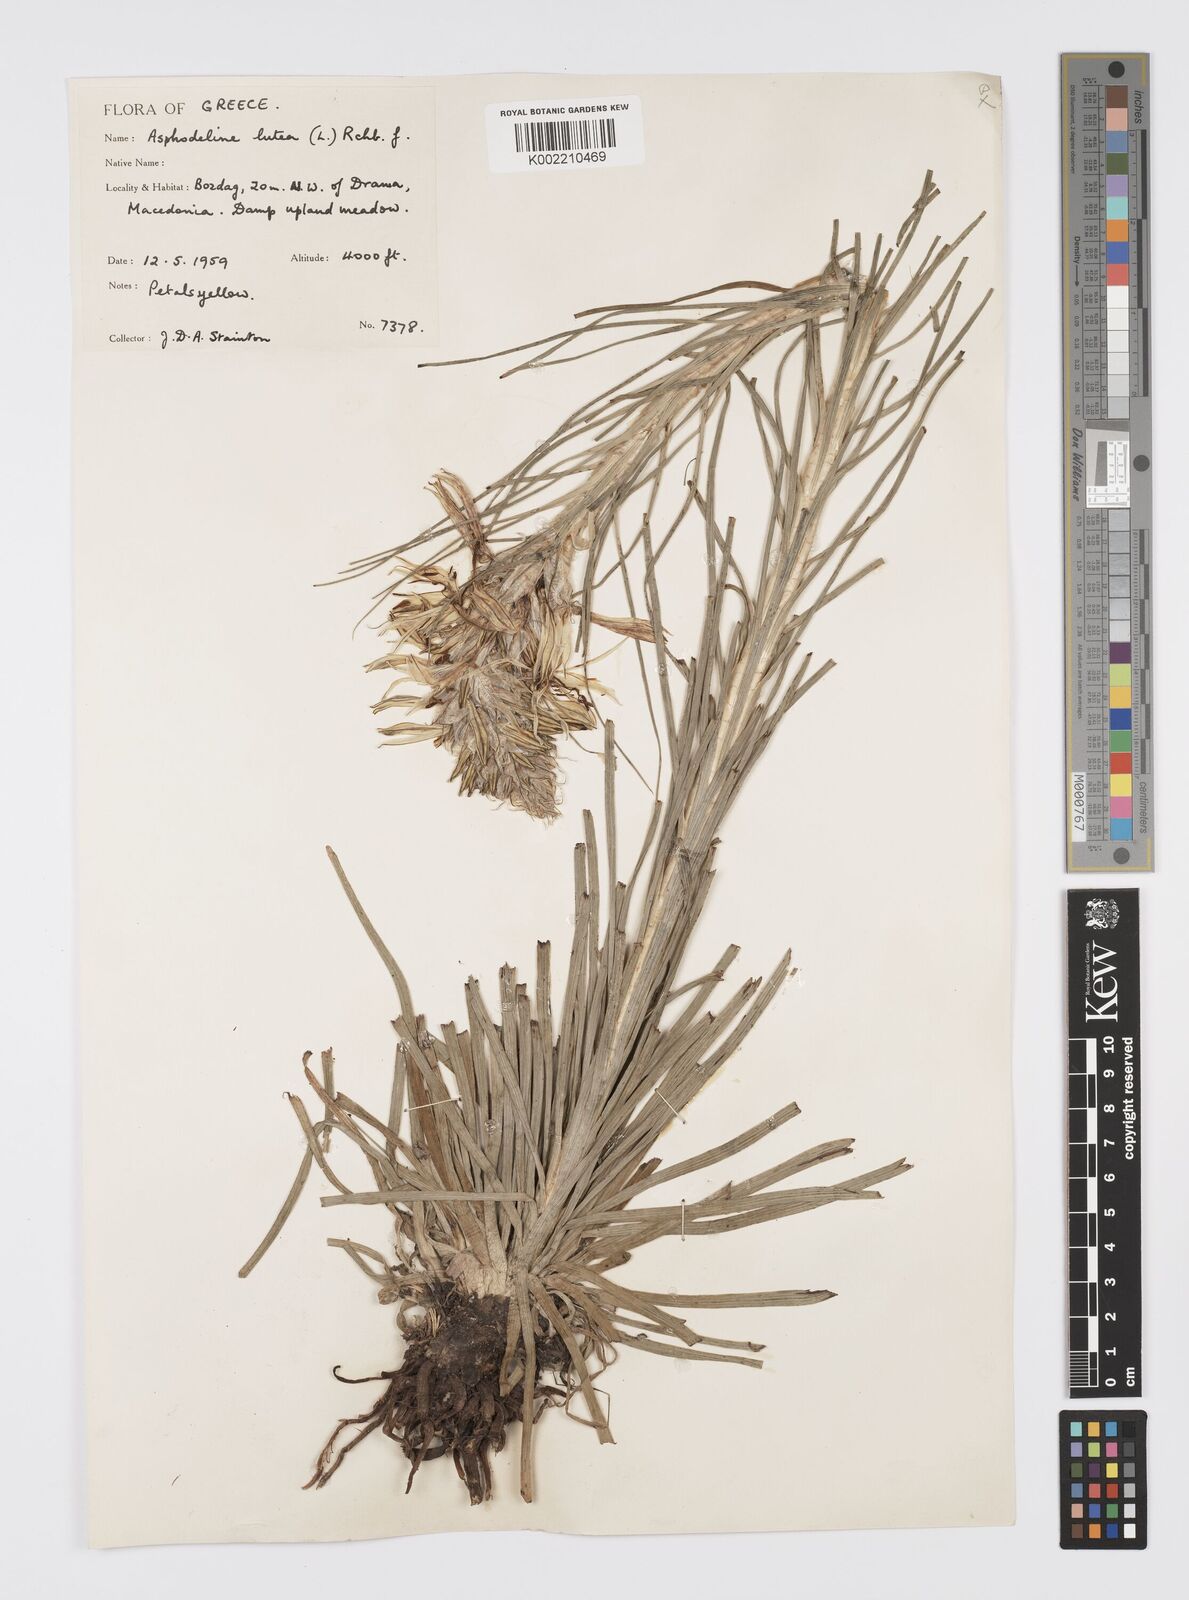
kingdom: Plantae
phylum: Tracheophyta
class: Liliopsida
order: Asparagales
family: Asphodelaceae
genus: Asphodeline
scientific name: Asphodeline lutea
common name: Yellow asphodel
